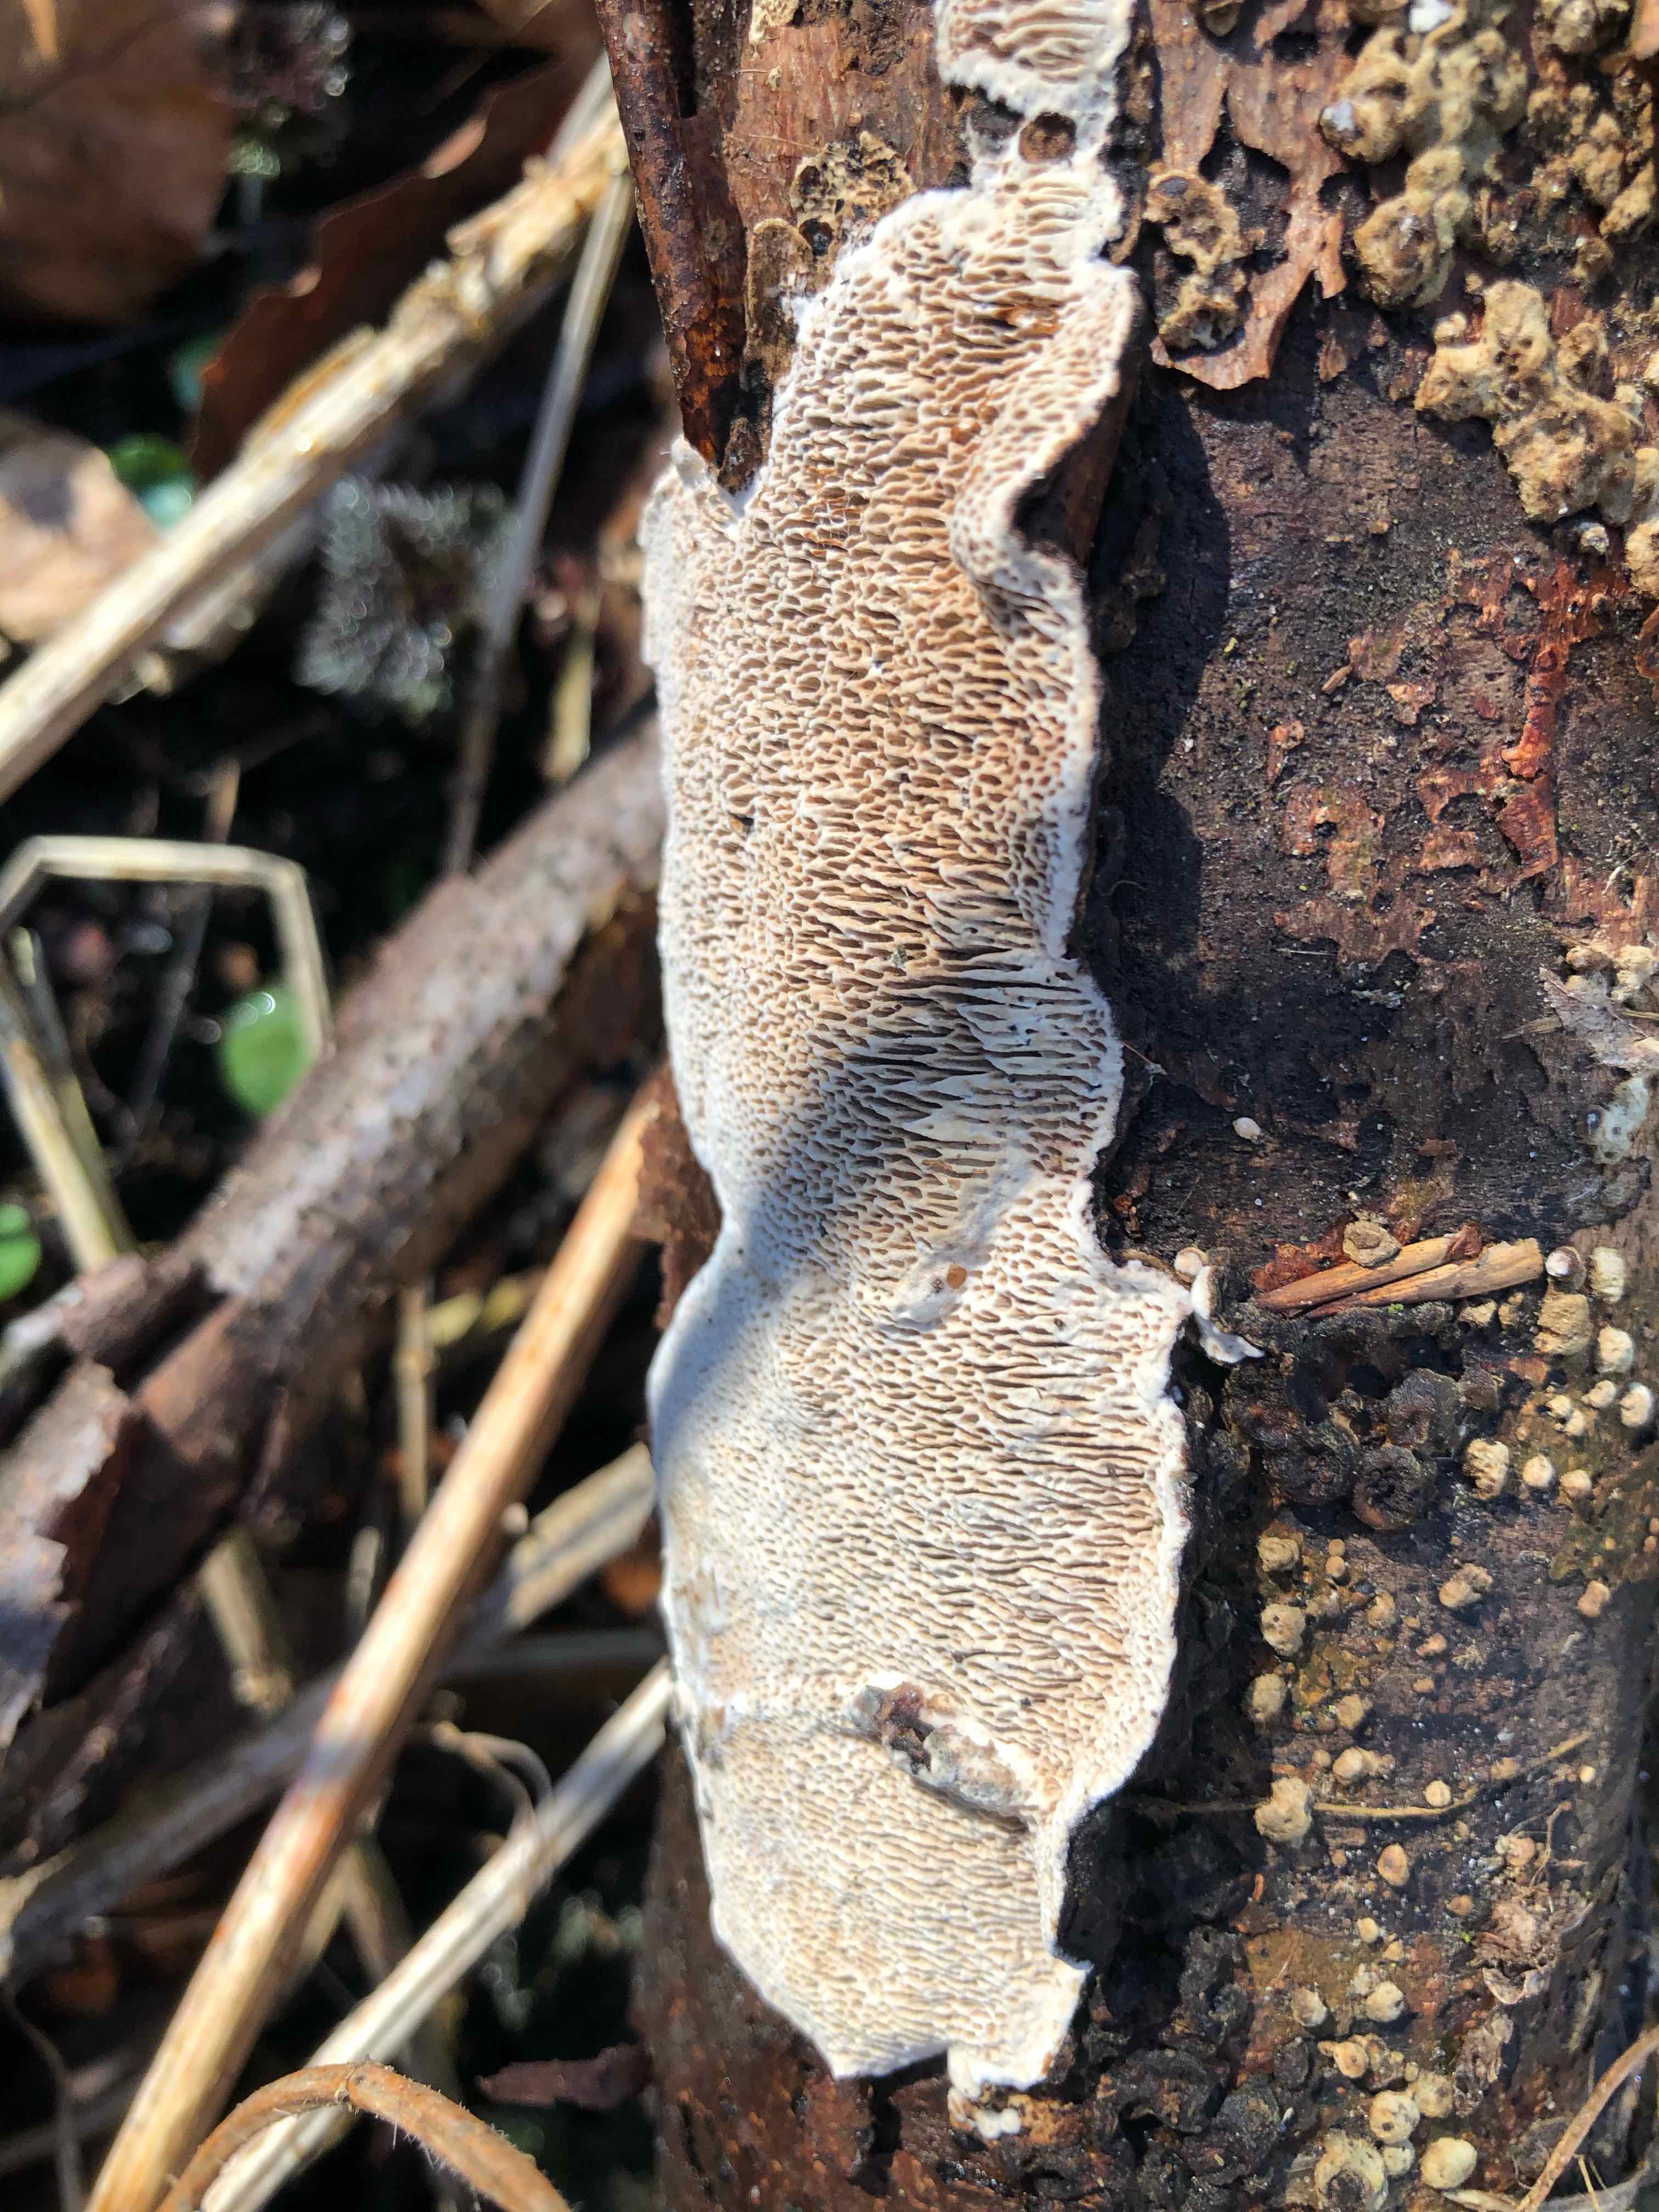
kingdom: Fungi
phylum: Basidiomycota
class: Agaricomycetes
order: Polyporales
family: Polyporaceae
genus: Podofomes
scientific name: Podofomes mollis
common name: blød begporesvamp
